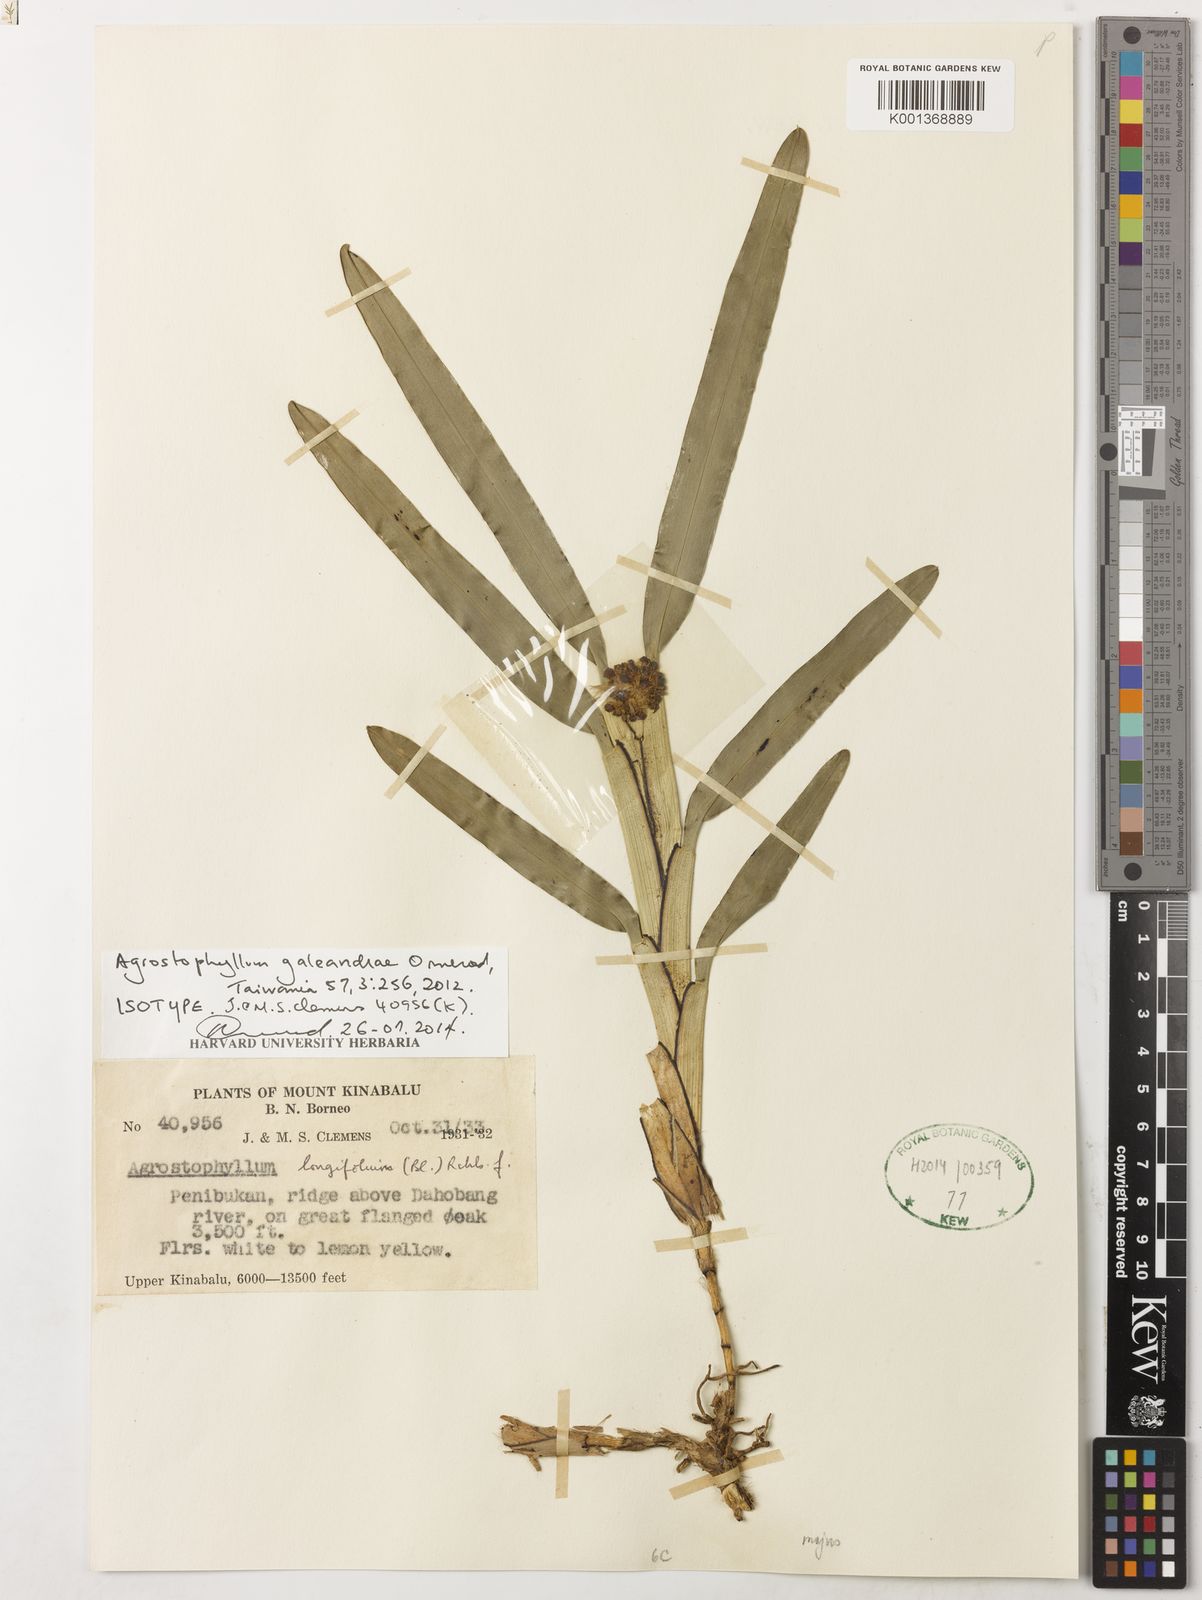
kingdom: Plantae
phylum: Tracheophyta
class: Liliopsida
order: Asparagales
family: Orchidaceae
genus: Agrostophyllum
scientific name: Agrostophyllum galeandrae
